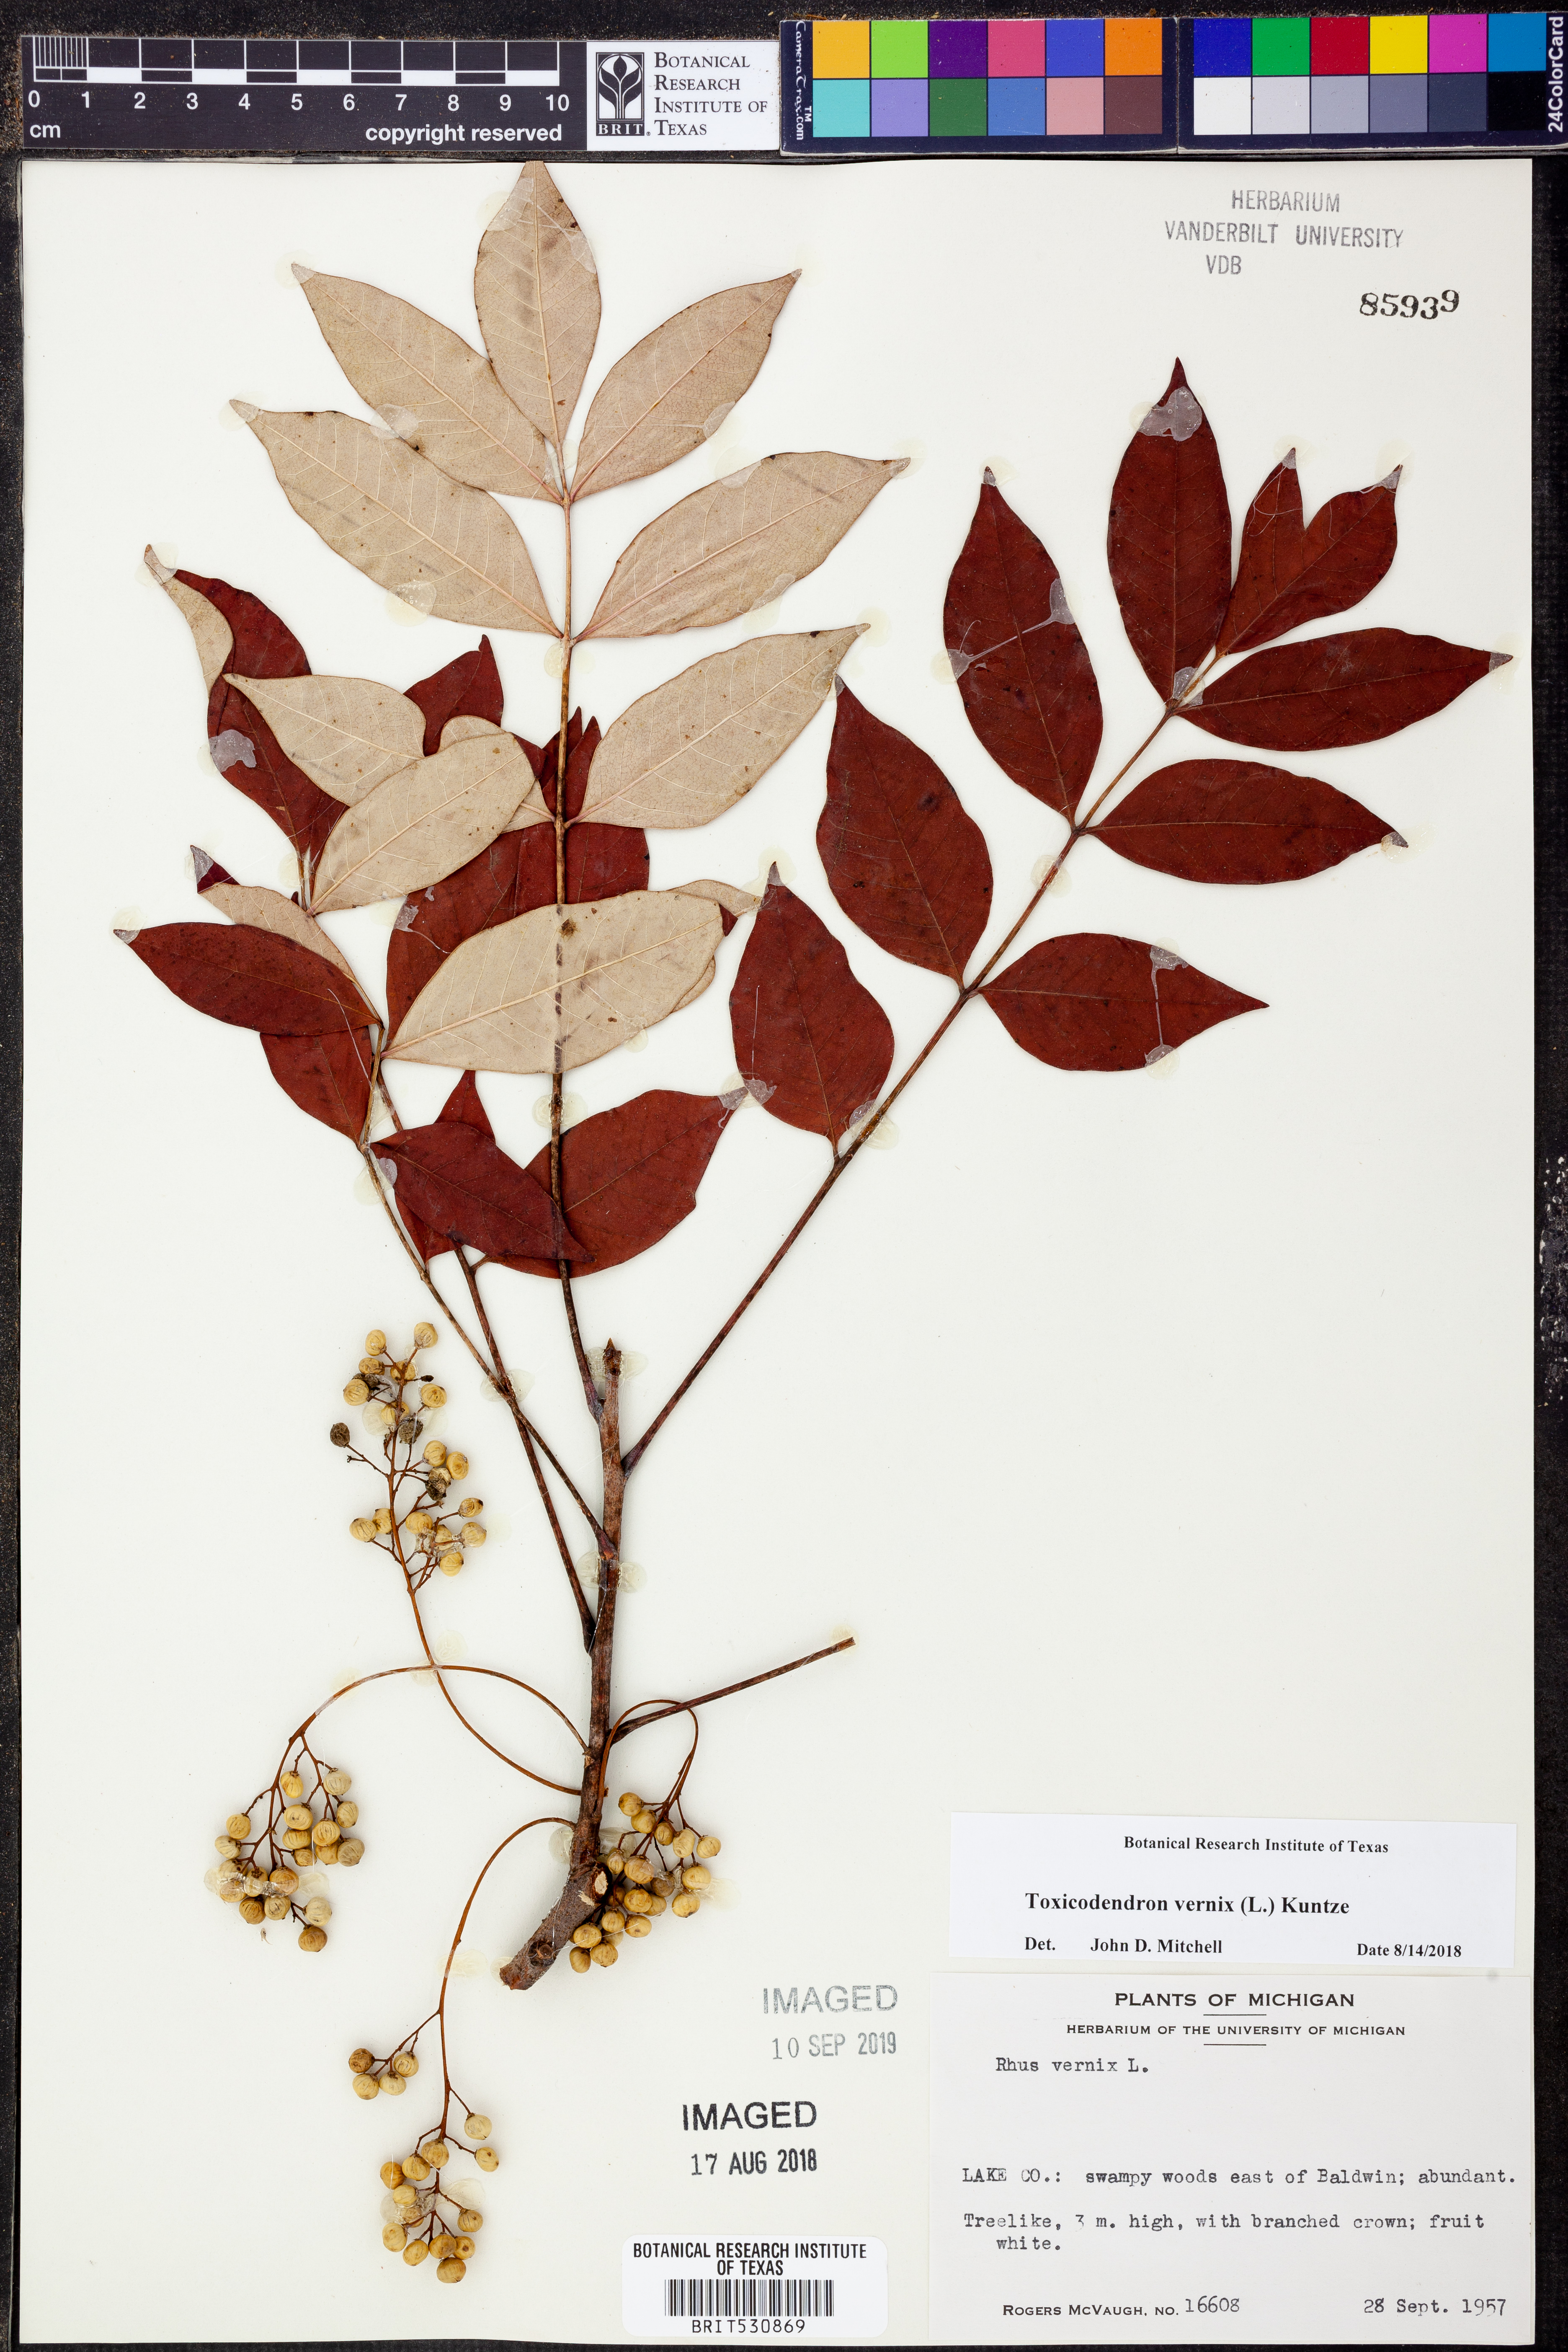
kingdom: Plantae
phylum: Tracheophyta
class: Magnoliopsida
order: Sapindales
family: Anacardiaceae
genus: Toxicodendron
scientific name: Toxicodendron vernix
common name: Poison sumac
